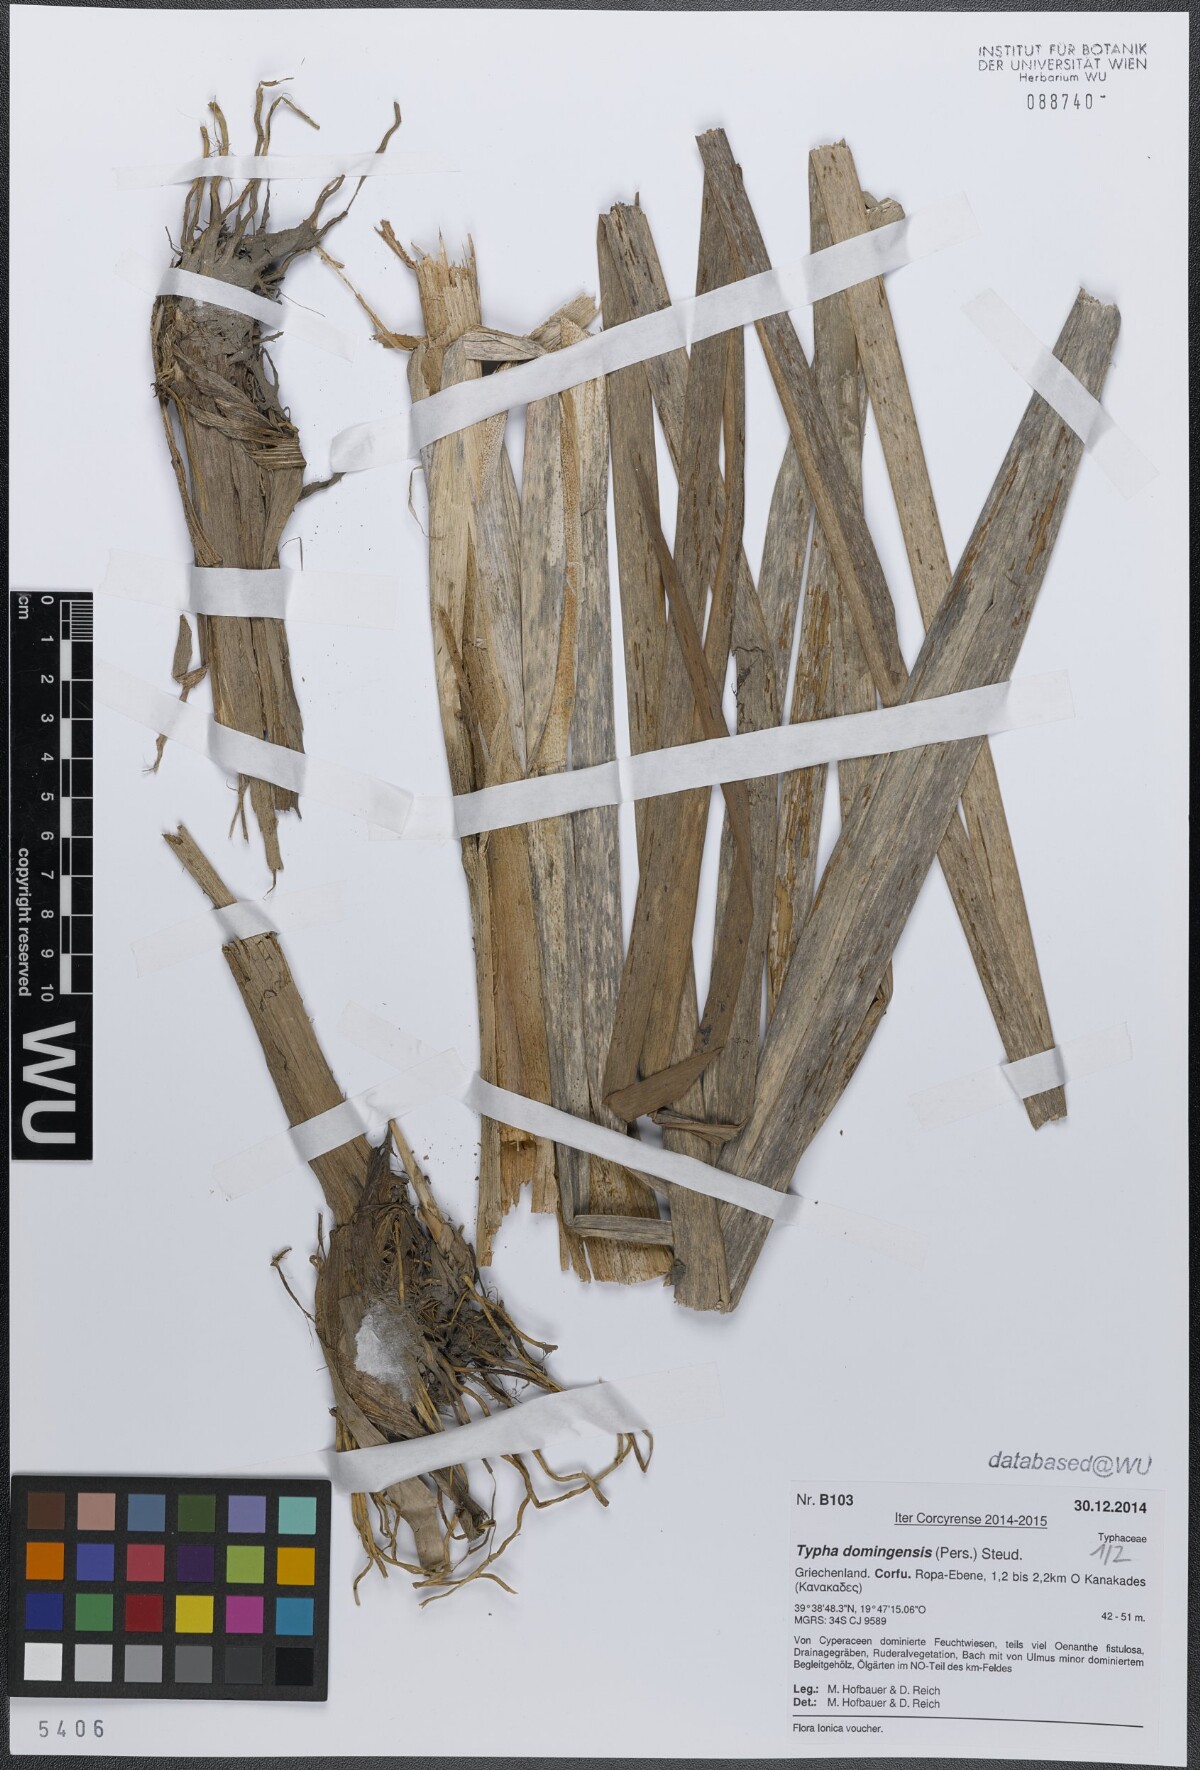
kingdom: Plantae
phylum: Tracheophyta
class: Liliopsida
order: Poales
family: Typhaceae
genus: Typha
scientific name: Typha domingensis
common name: Southern cattail
